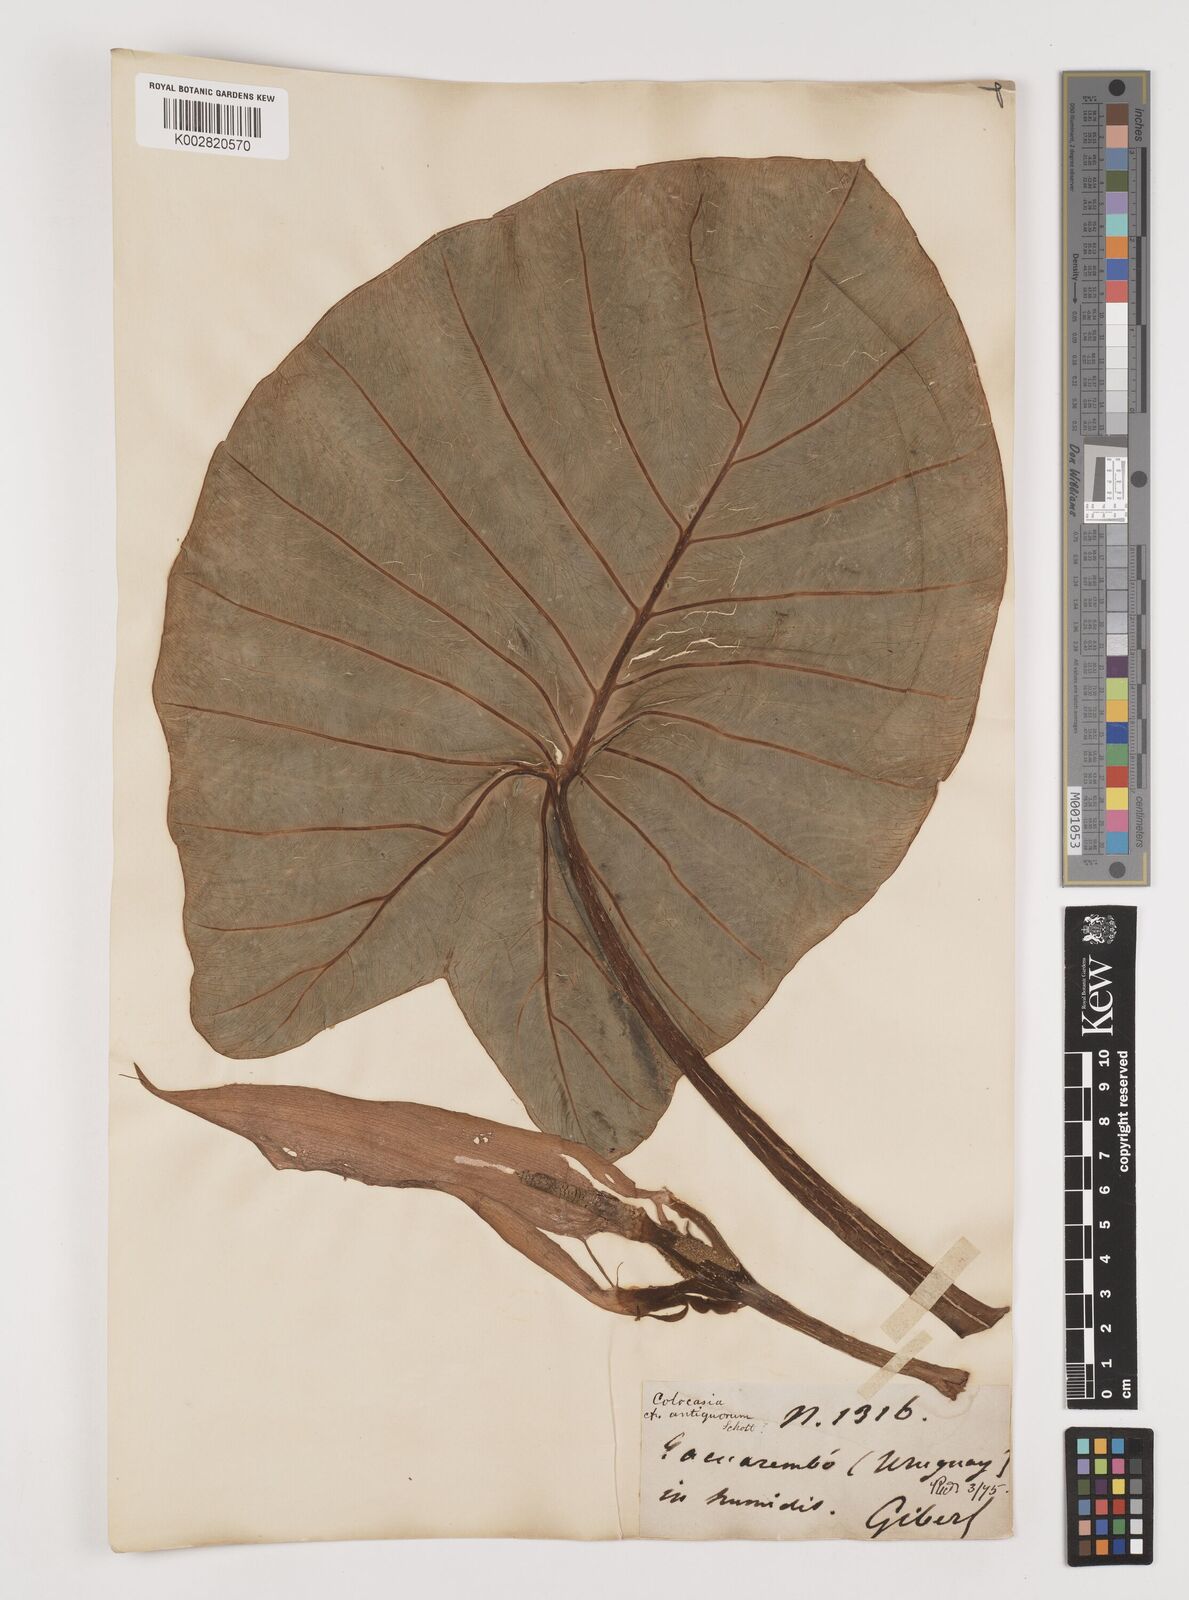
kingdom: Plantae
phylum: Tracheophyta
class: Liliopsida
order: Alismatales
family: Araceae
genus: Colocasia
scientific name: Colocasia esculenta
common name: Taro
